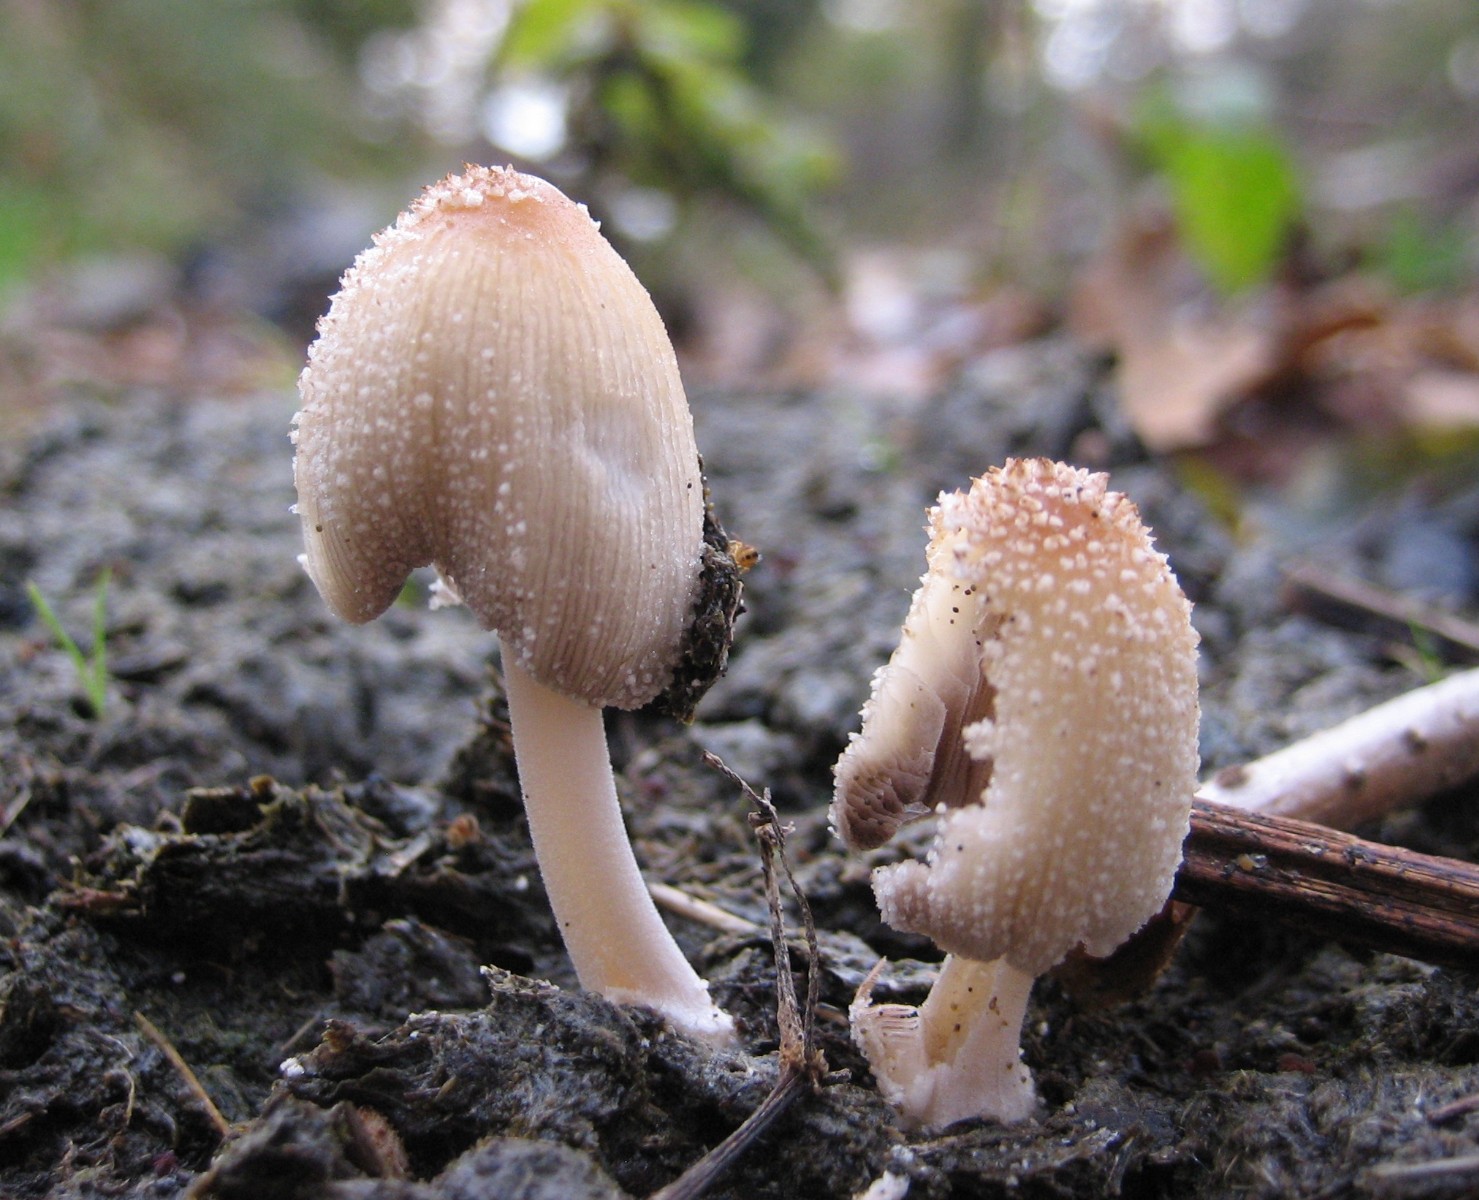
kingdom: Fungi
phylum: Basidiomycota
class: Agaricomycetes
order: Agaricales
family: Psathyrellaceae
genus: Coprinellus
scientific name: Coprinellus
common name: blækhat
